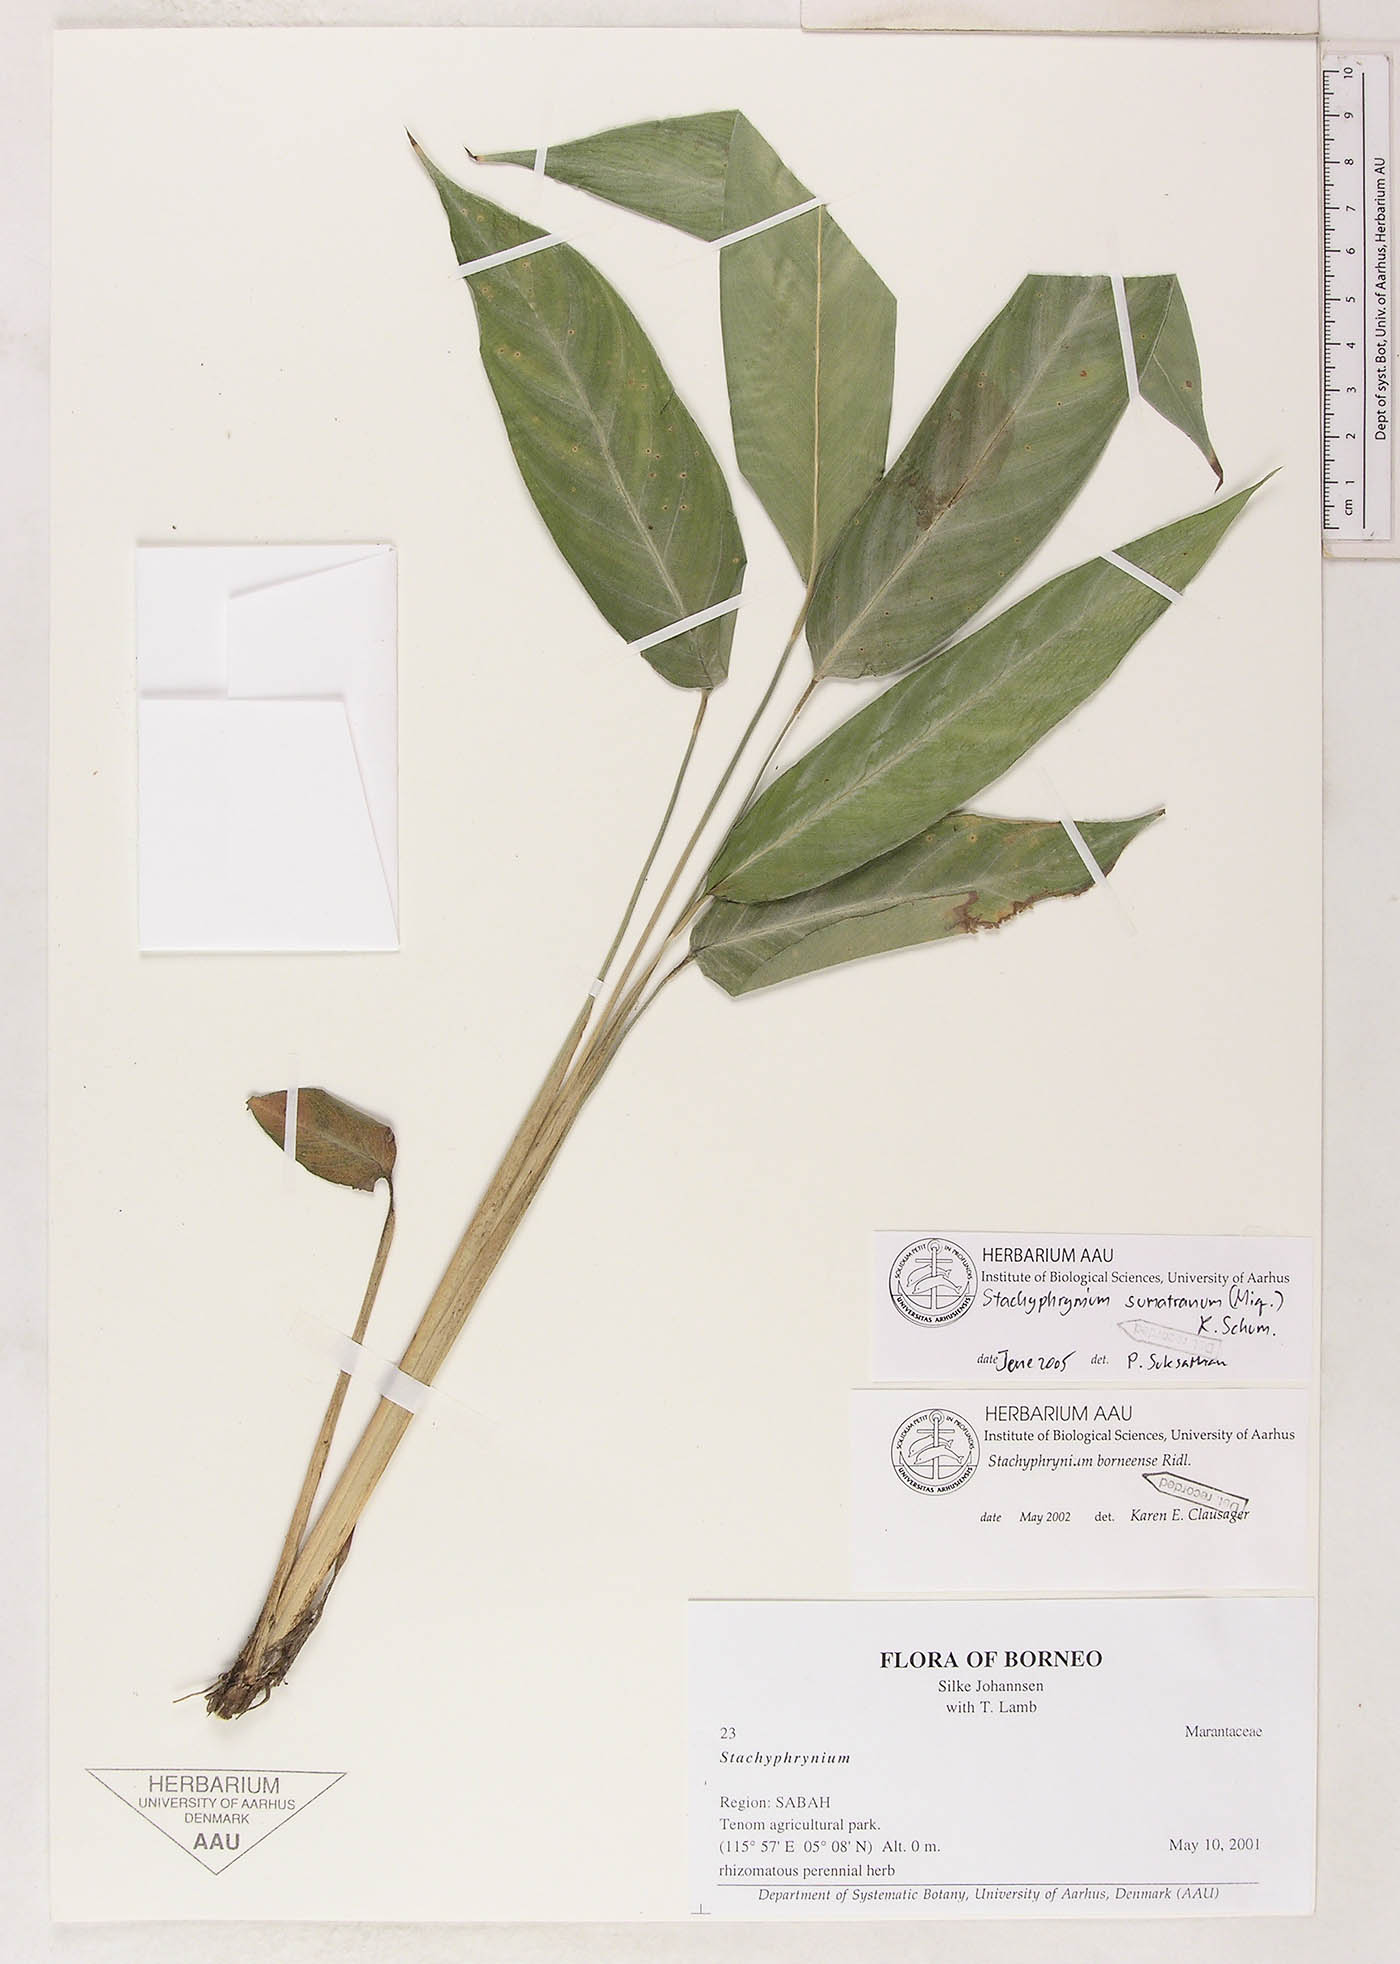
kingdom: Plantae
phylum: Tracheophyta
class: Liliopsida
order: Zingiberales
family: Marantaceae
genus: Stachyphrynium
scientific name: Stachyphrynium sumatranum
